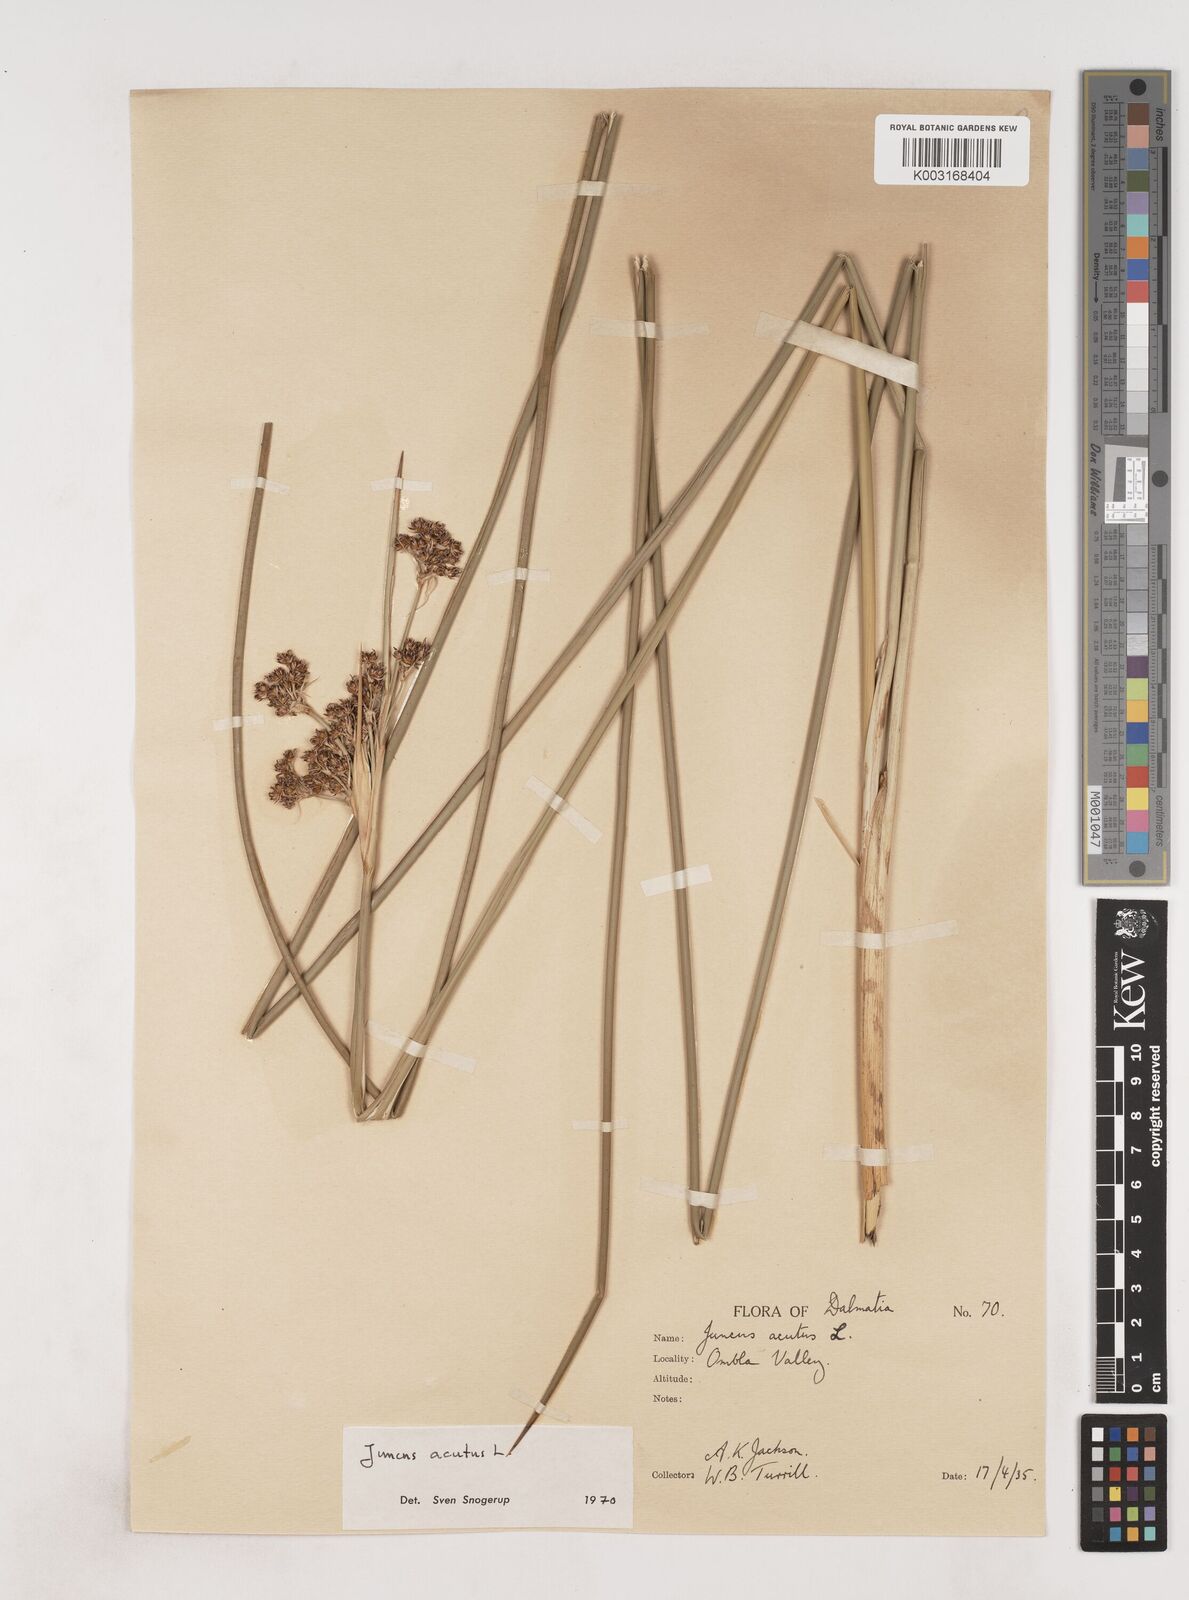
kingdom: Plantae
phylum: Tracheophyta
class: Liliopsida
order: Poales
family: Juncaceae
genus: Juncus
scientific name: Juncus acutus
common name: Sharp rush
